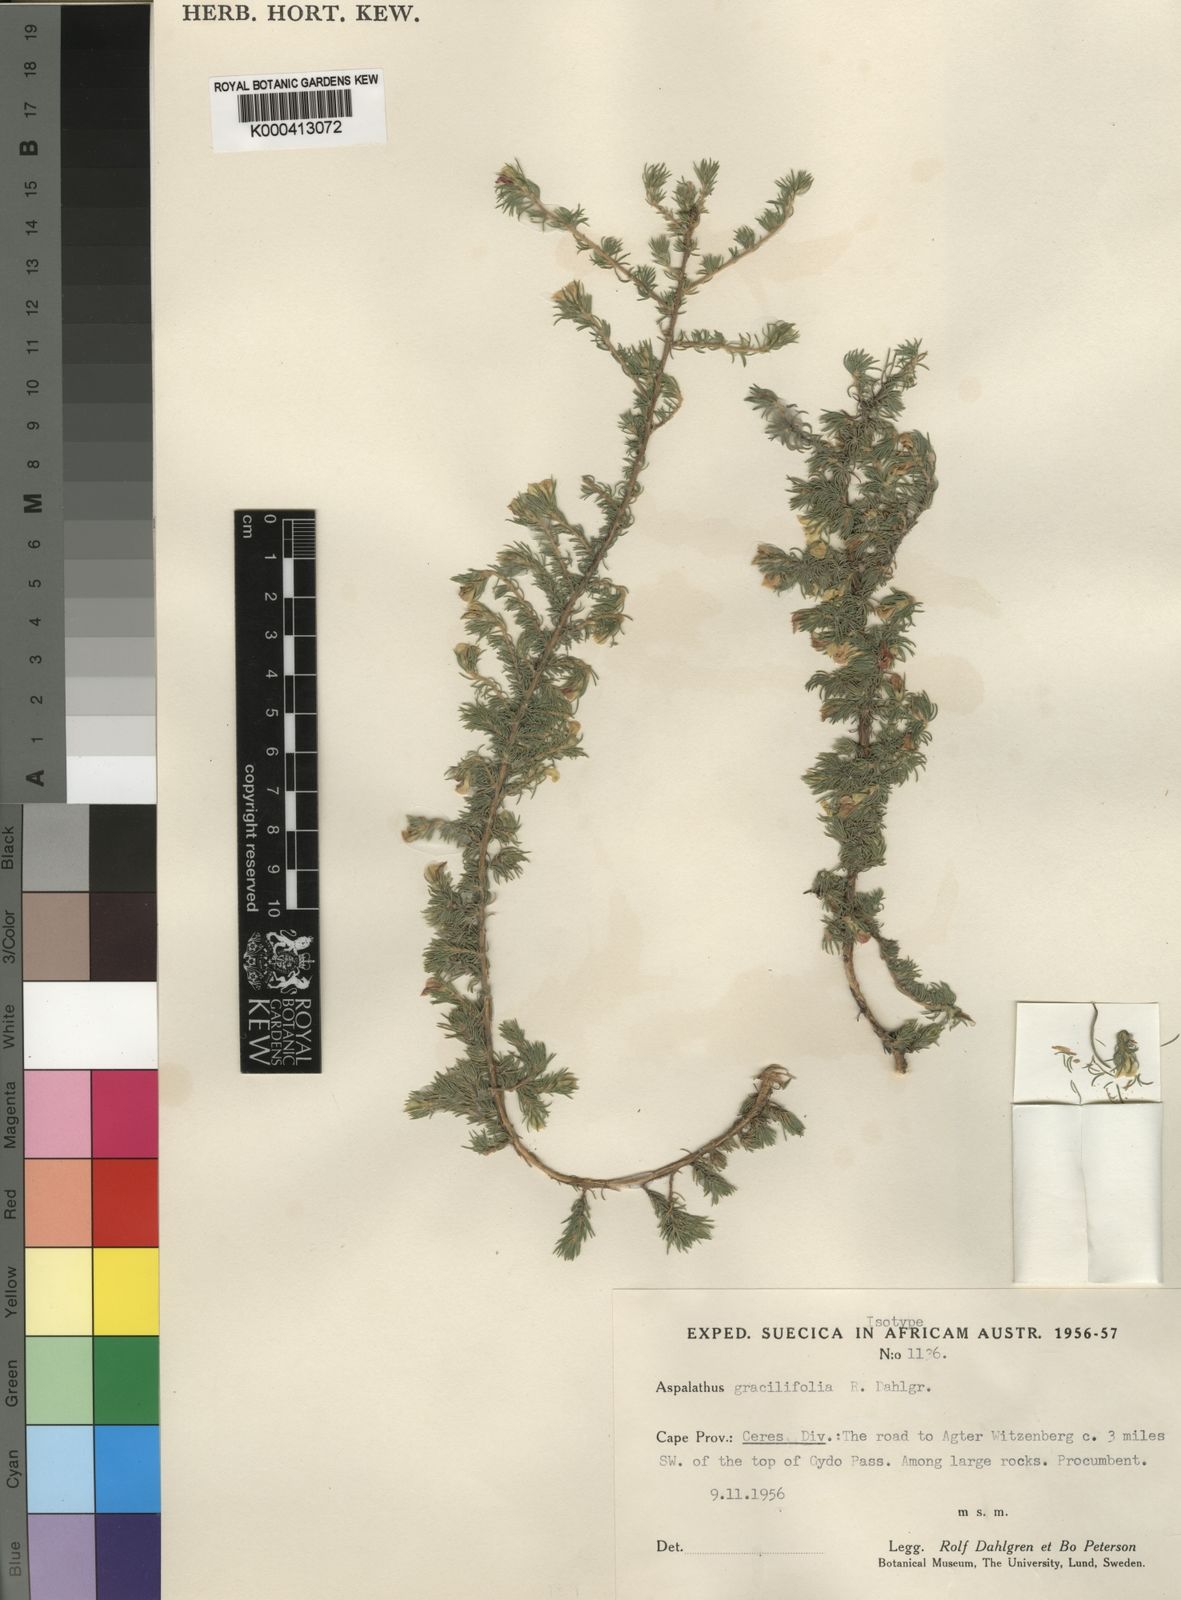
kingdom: Plantae
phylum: Tracheophyta
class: Magnoliopsida
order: Fabales
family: Fabaceae
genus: Aspalathus
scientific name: Aspalathus
